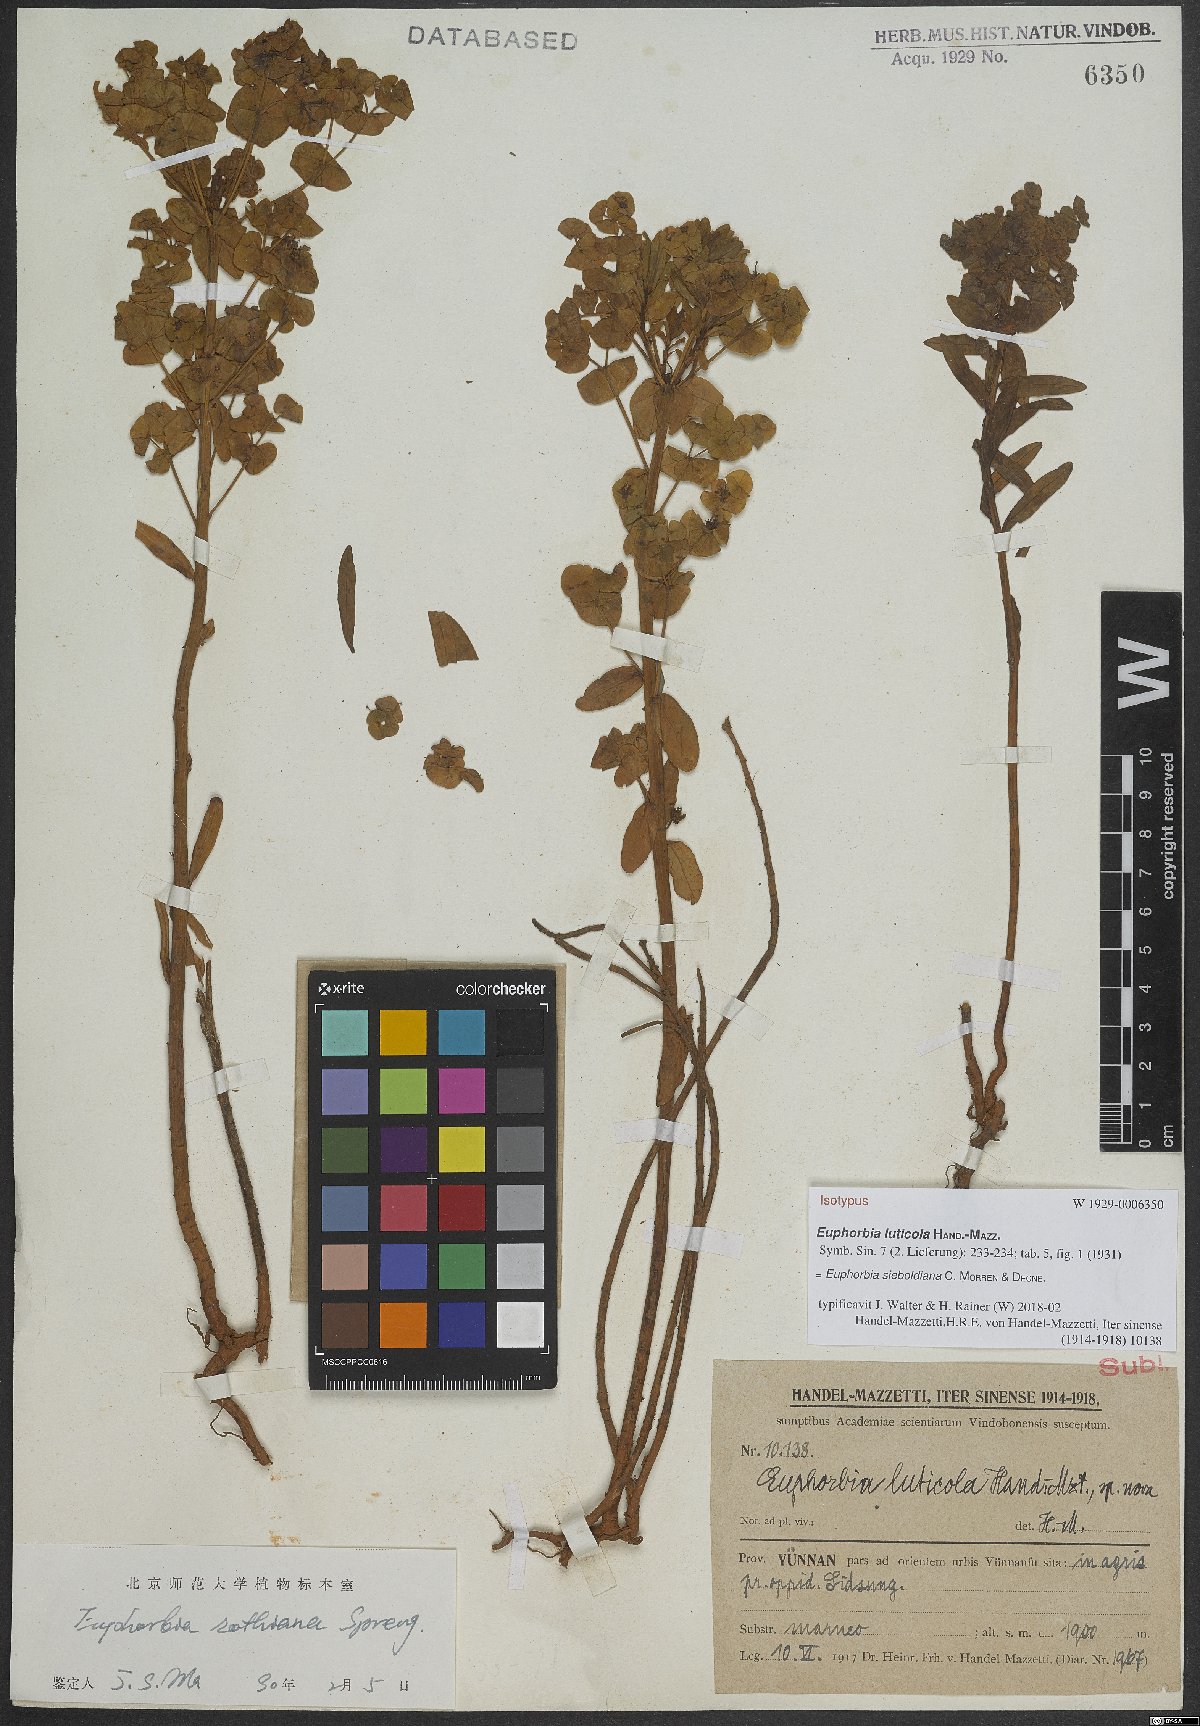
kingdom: Plantae
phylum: Tracheophyta
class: Magnoliopsida
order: Malpighiales
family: Euphorbiaceae
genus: Euphorbia
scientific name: Euphorbia sieboldiana
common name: Siebold's spurge
